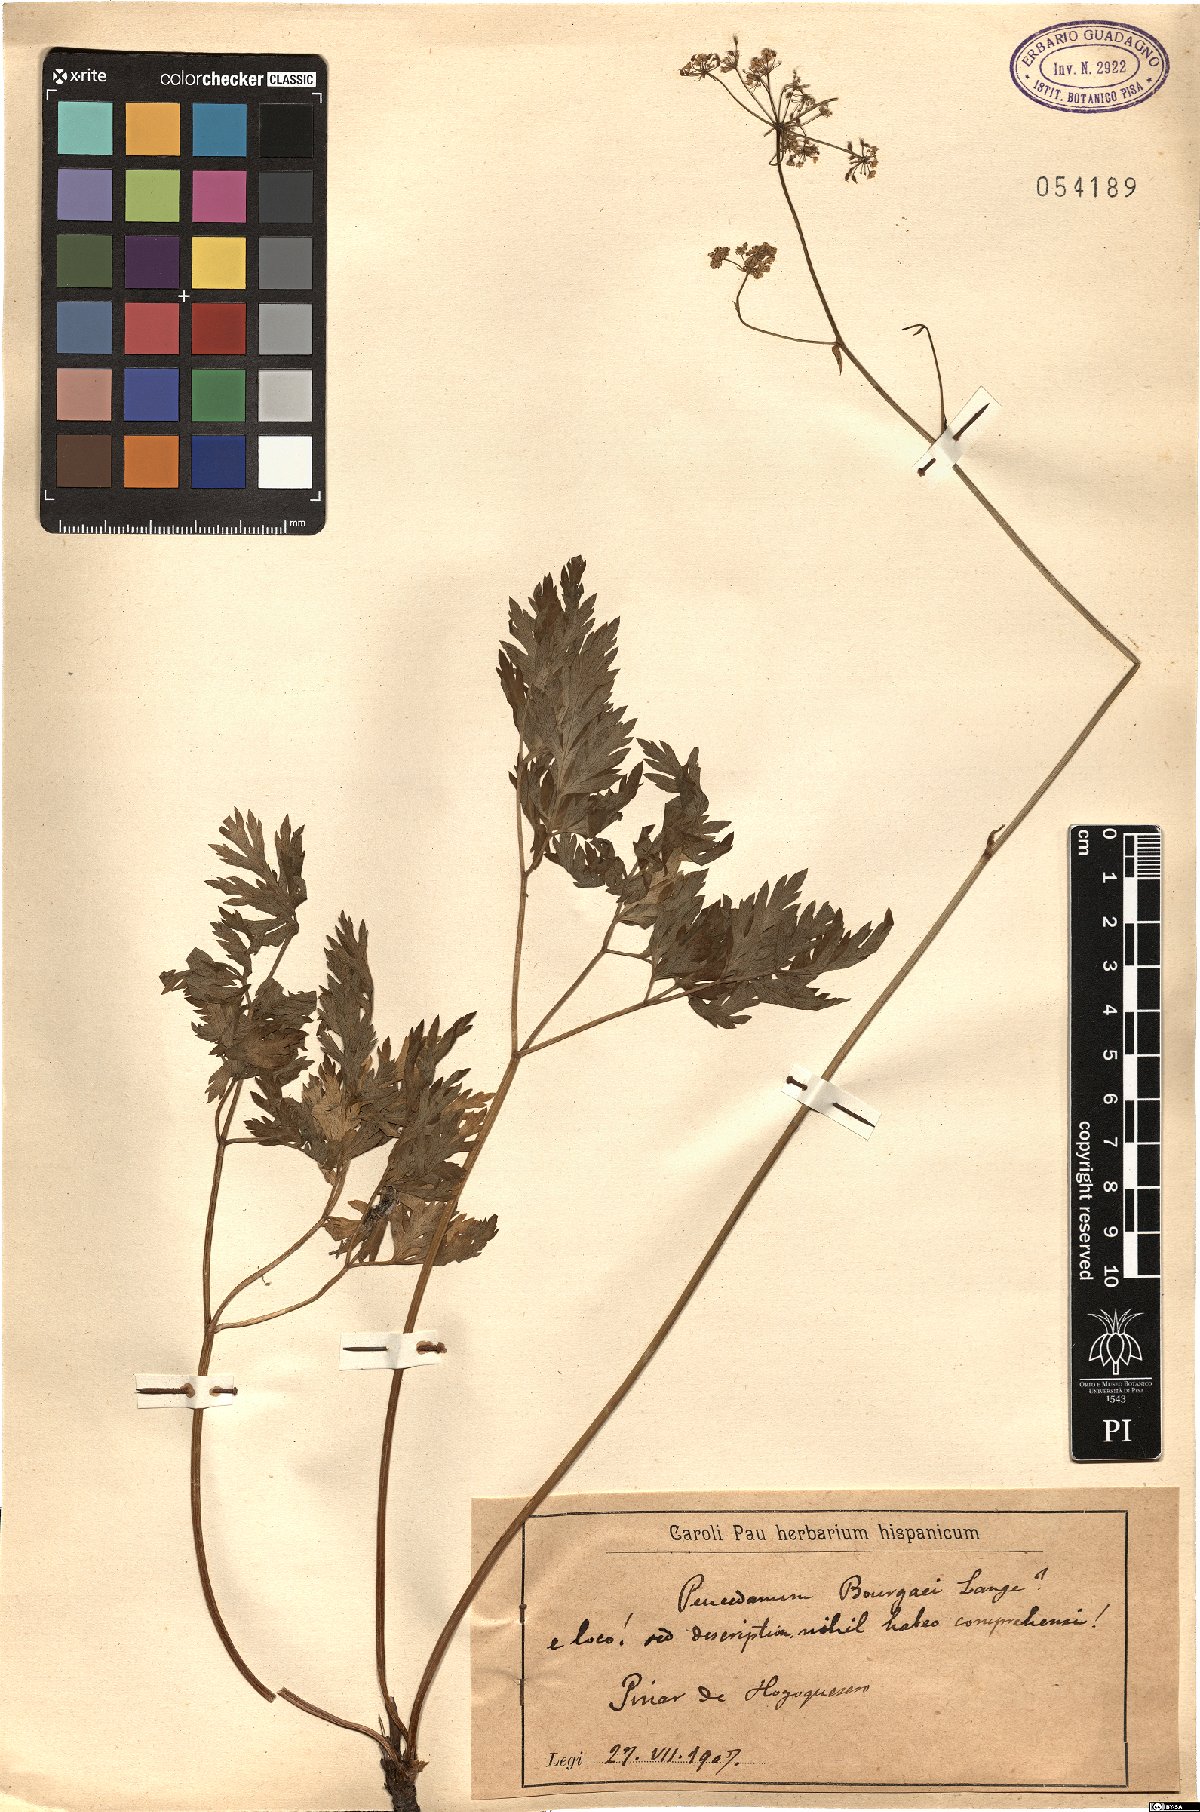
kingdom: Plantae
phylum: Tracheophyta
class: Magnoliopsida
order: Apiales
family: Apiaceae
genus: Oreoselinum
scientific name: Oreoselinum nigrum
